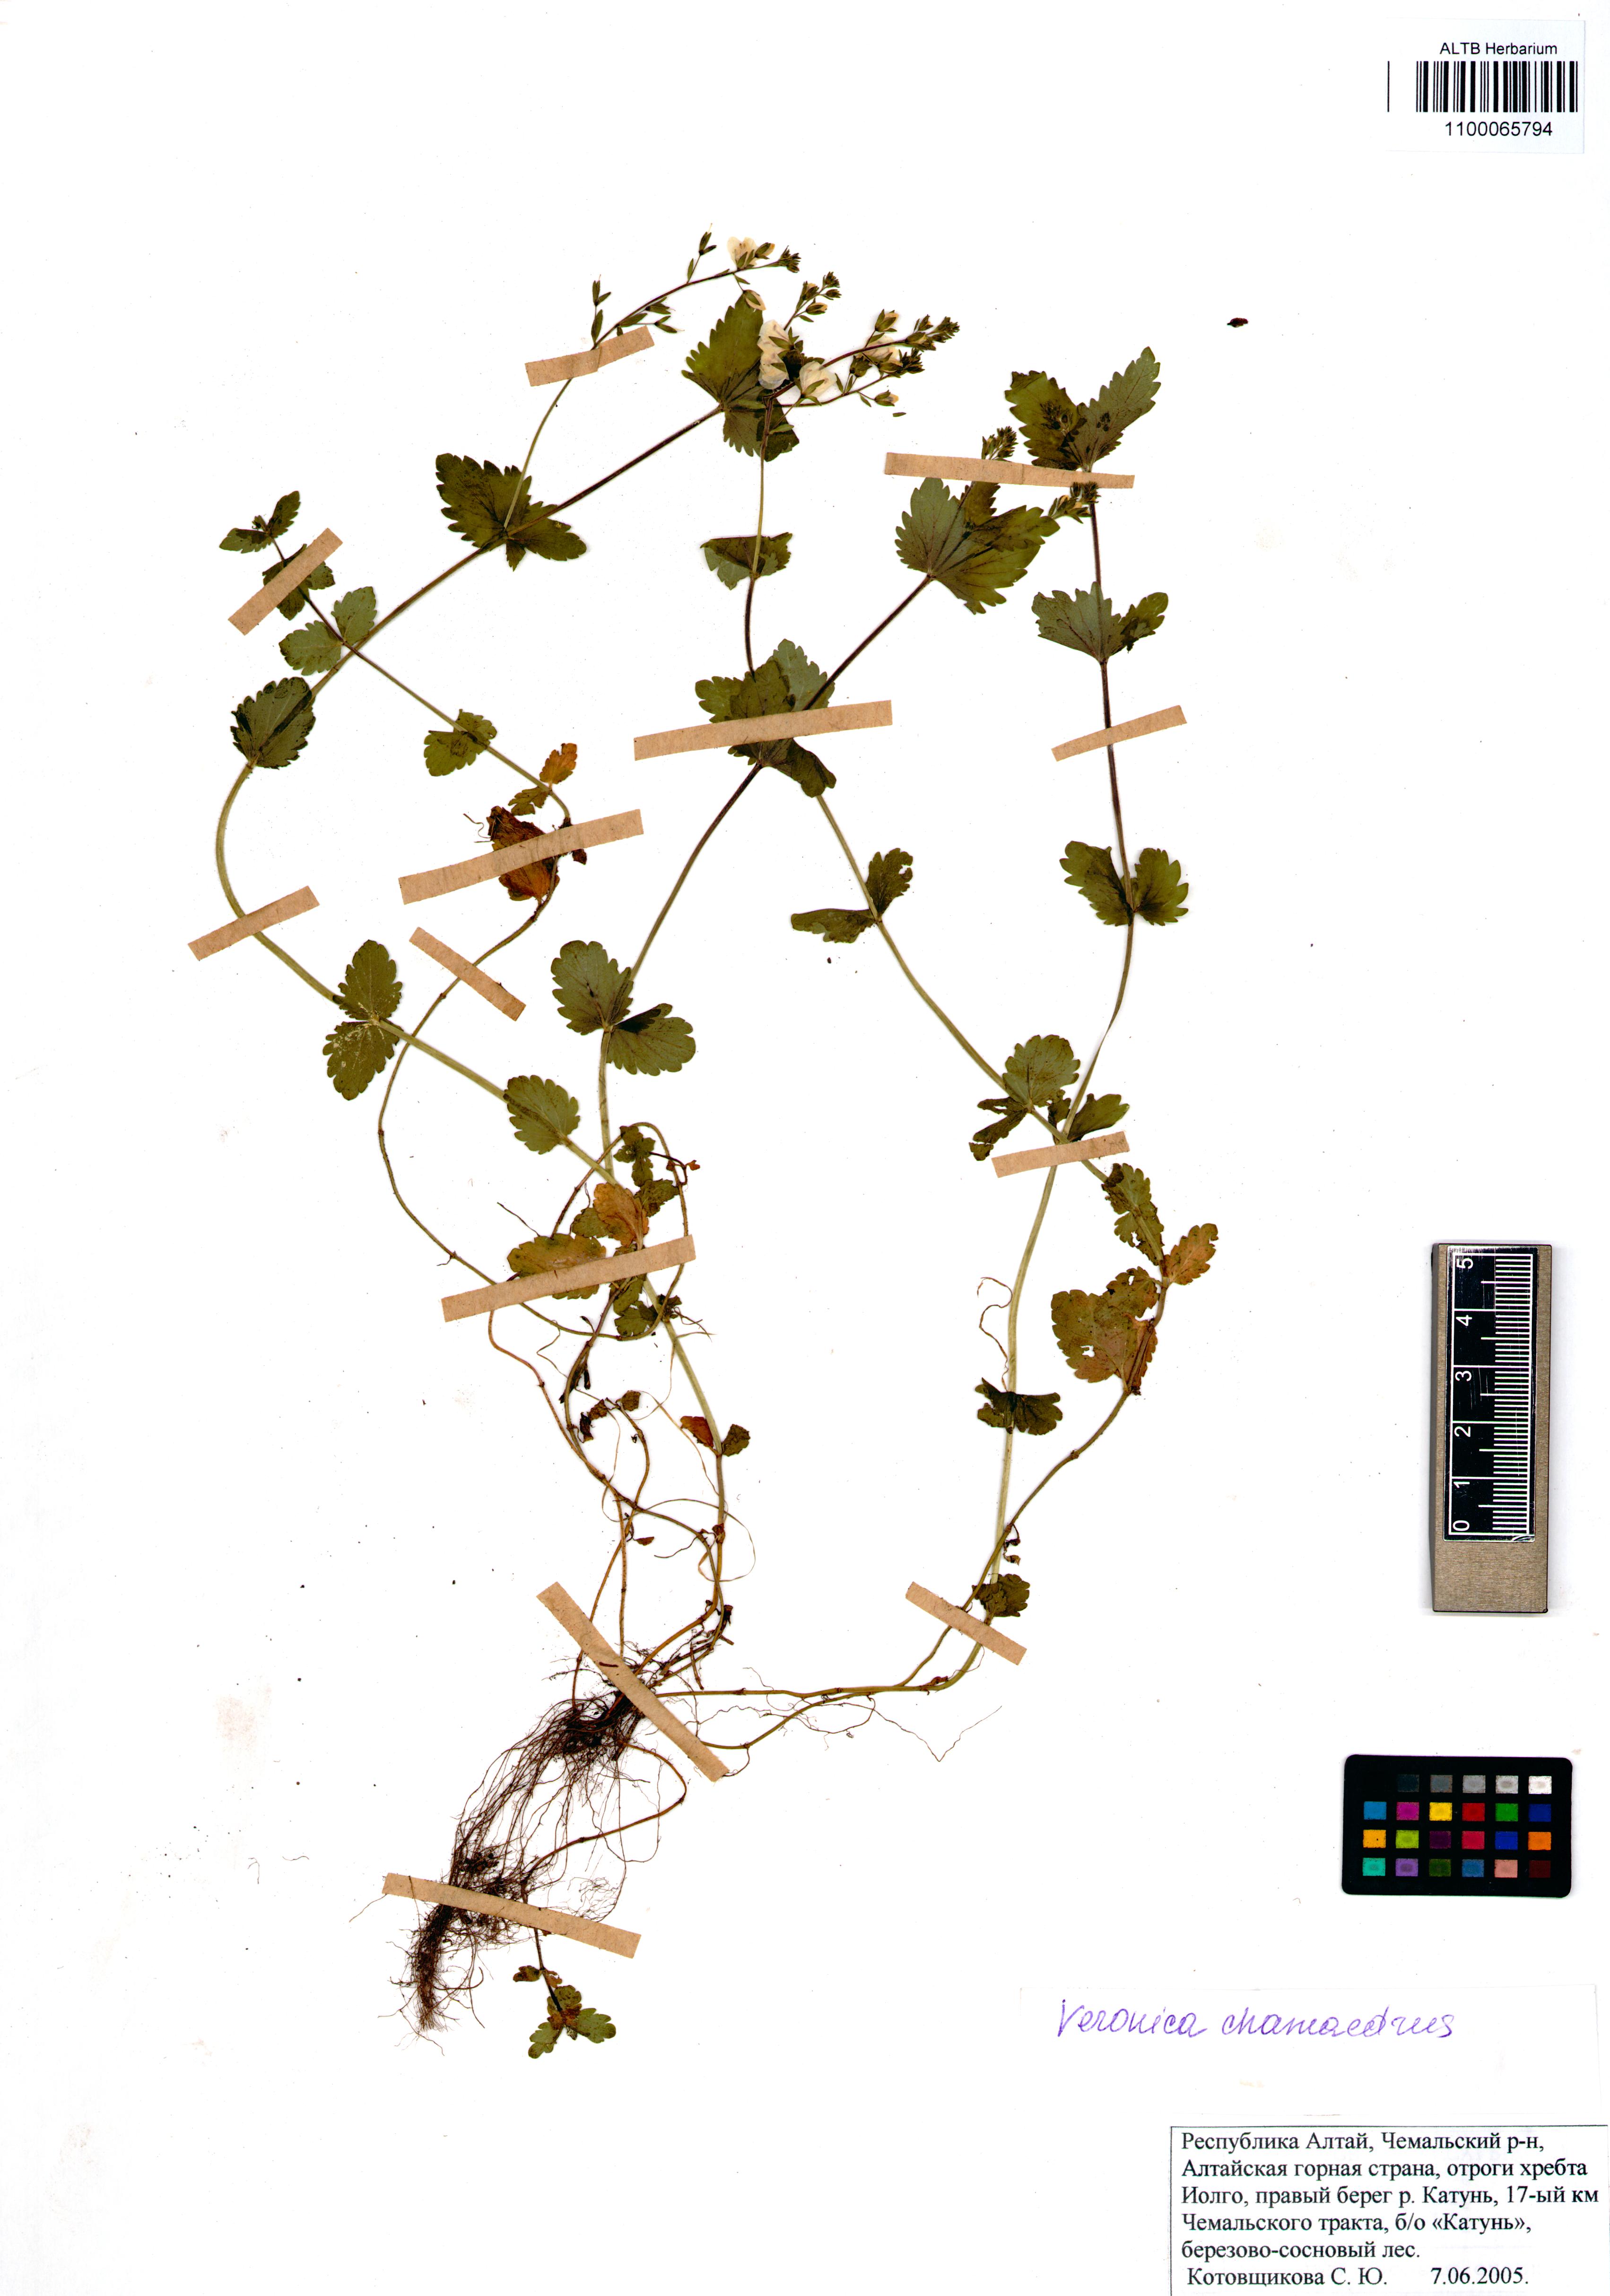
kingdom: Plantae
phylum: Tracheophyta
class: Magnoliopsida
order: Lamiales
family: Plantaginaceae
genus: Veronica
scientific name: Veronica chamaedrys
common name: Germander speedwell
